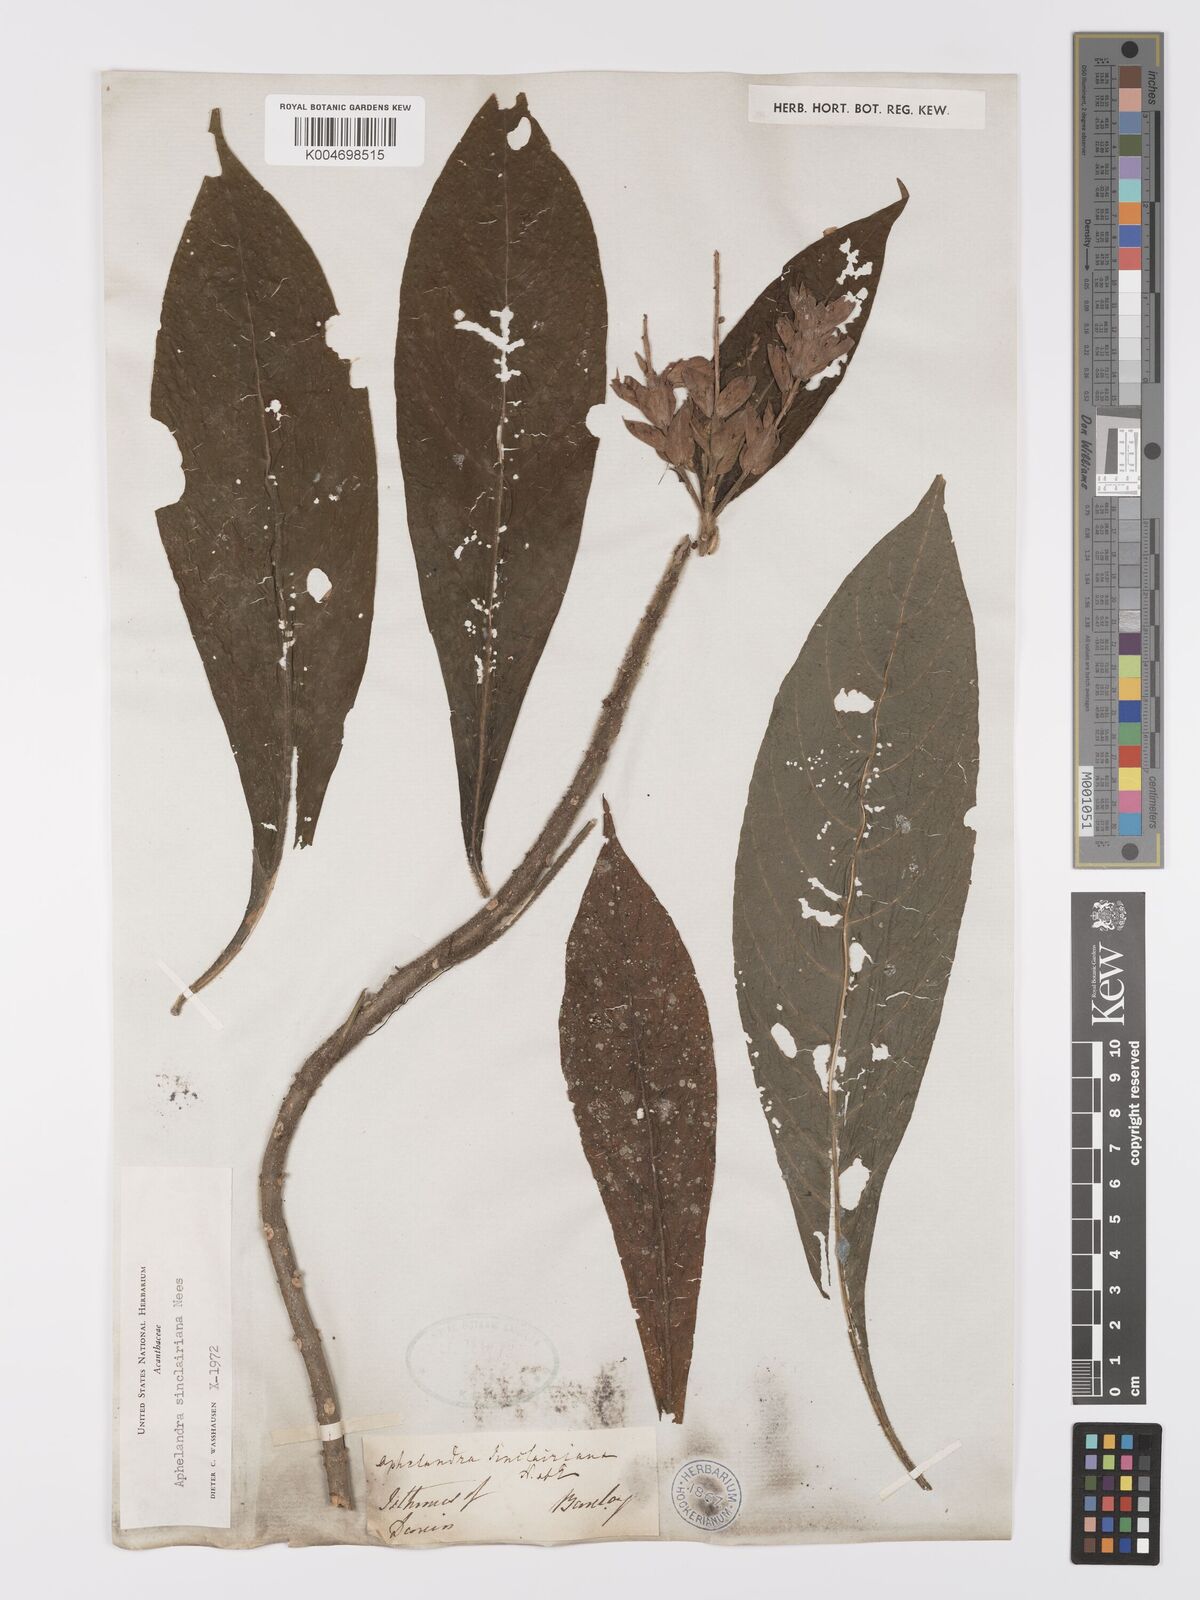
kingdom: Plantae
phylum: Tracheophyta
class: Magnoliopsida
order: Lamiales
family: Acanthaceae
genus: Aphelandra
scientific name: Aphelandra sinclairiana
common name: Coral aphelandra
